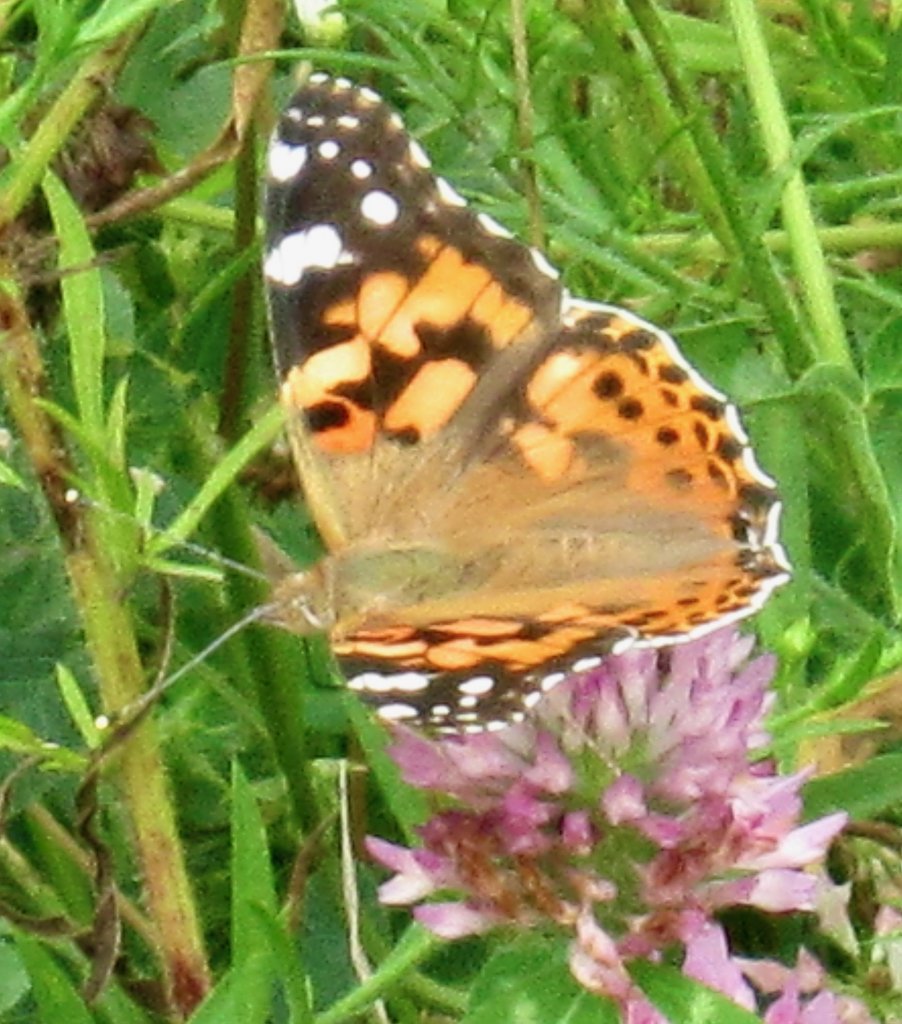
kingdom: Animalia
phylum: Arthropoda
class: Insecta
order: Lepidoptera
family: Nymphalidae
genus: Vanessa
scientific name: Vanessa cardui
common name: Painted Lady
